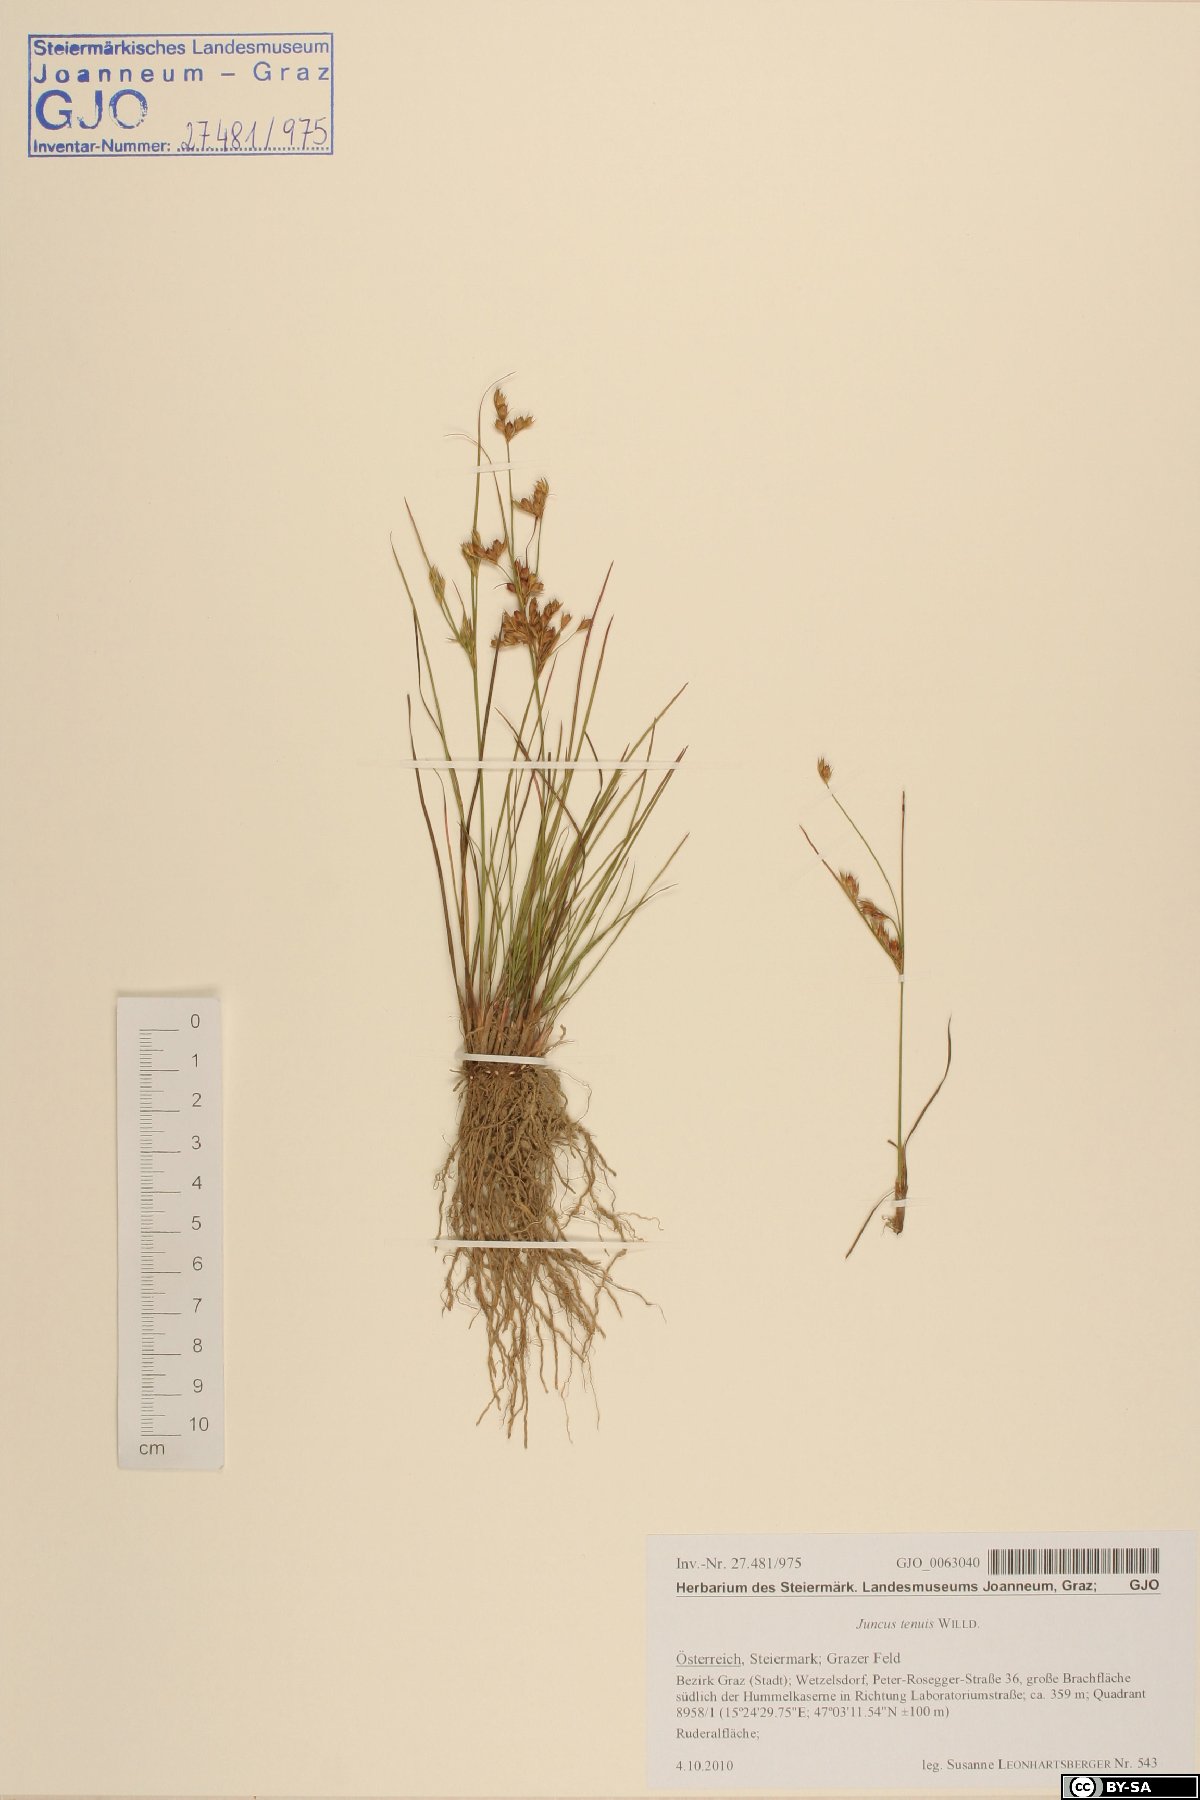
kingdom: Plantae
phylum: Tracheophyta
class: Liliopsida
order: Poales
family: Juncaceae
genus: Juncus
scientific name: Juncus tenuis
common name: Slender rush
